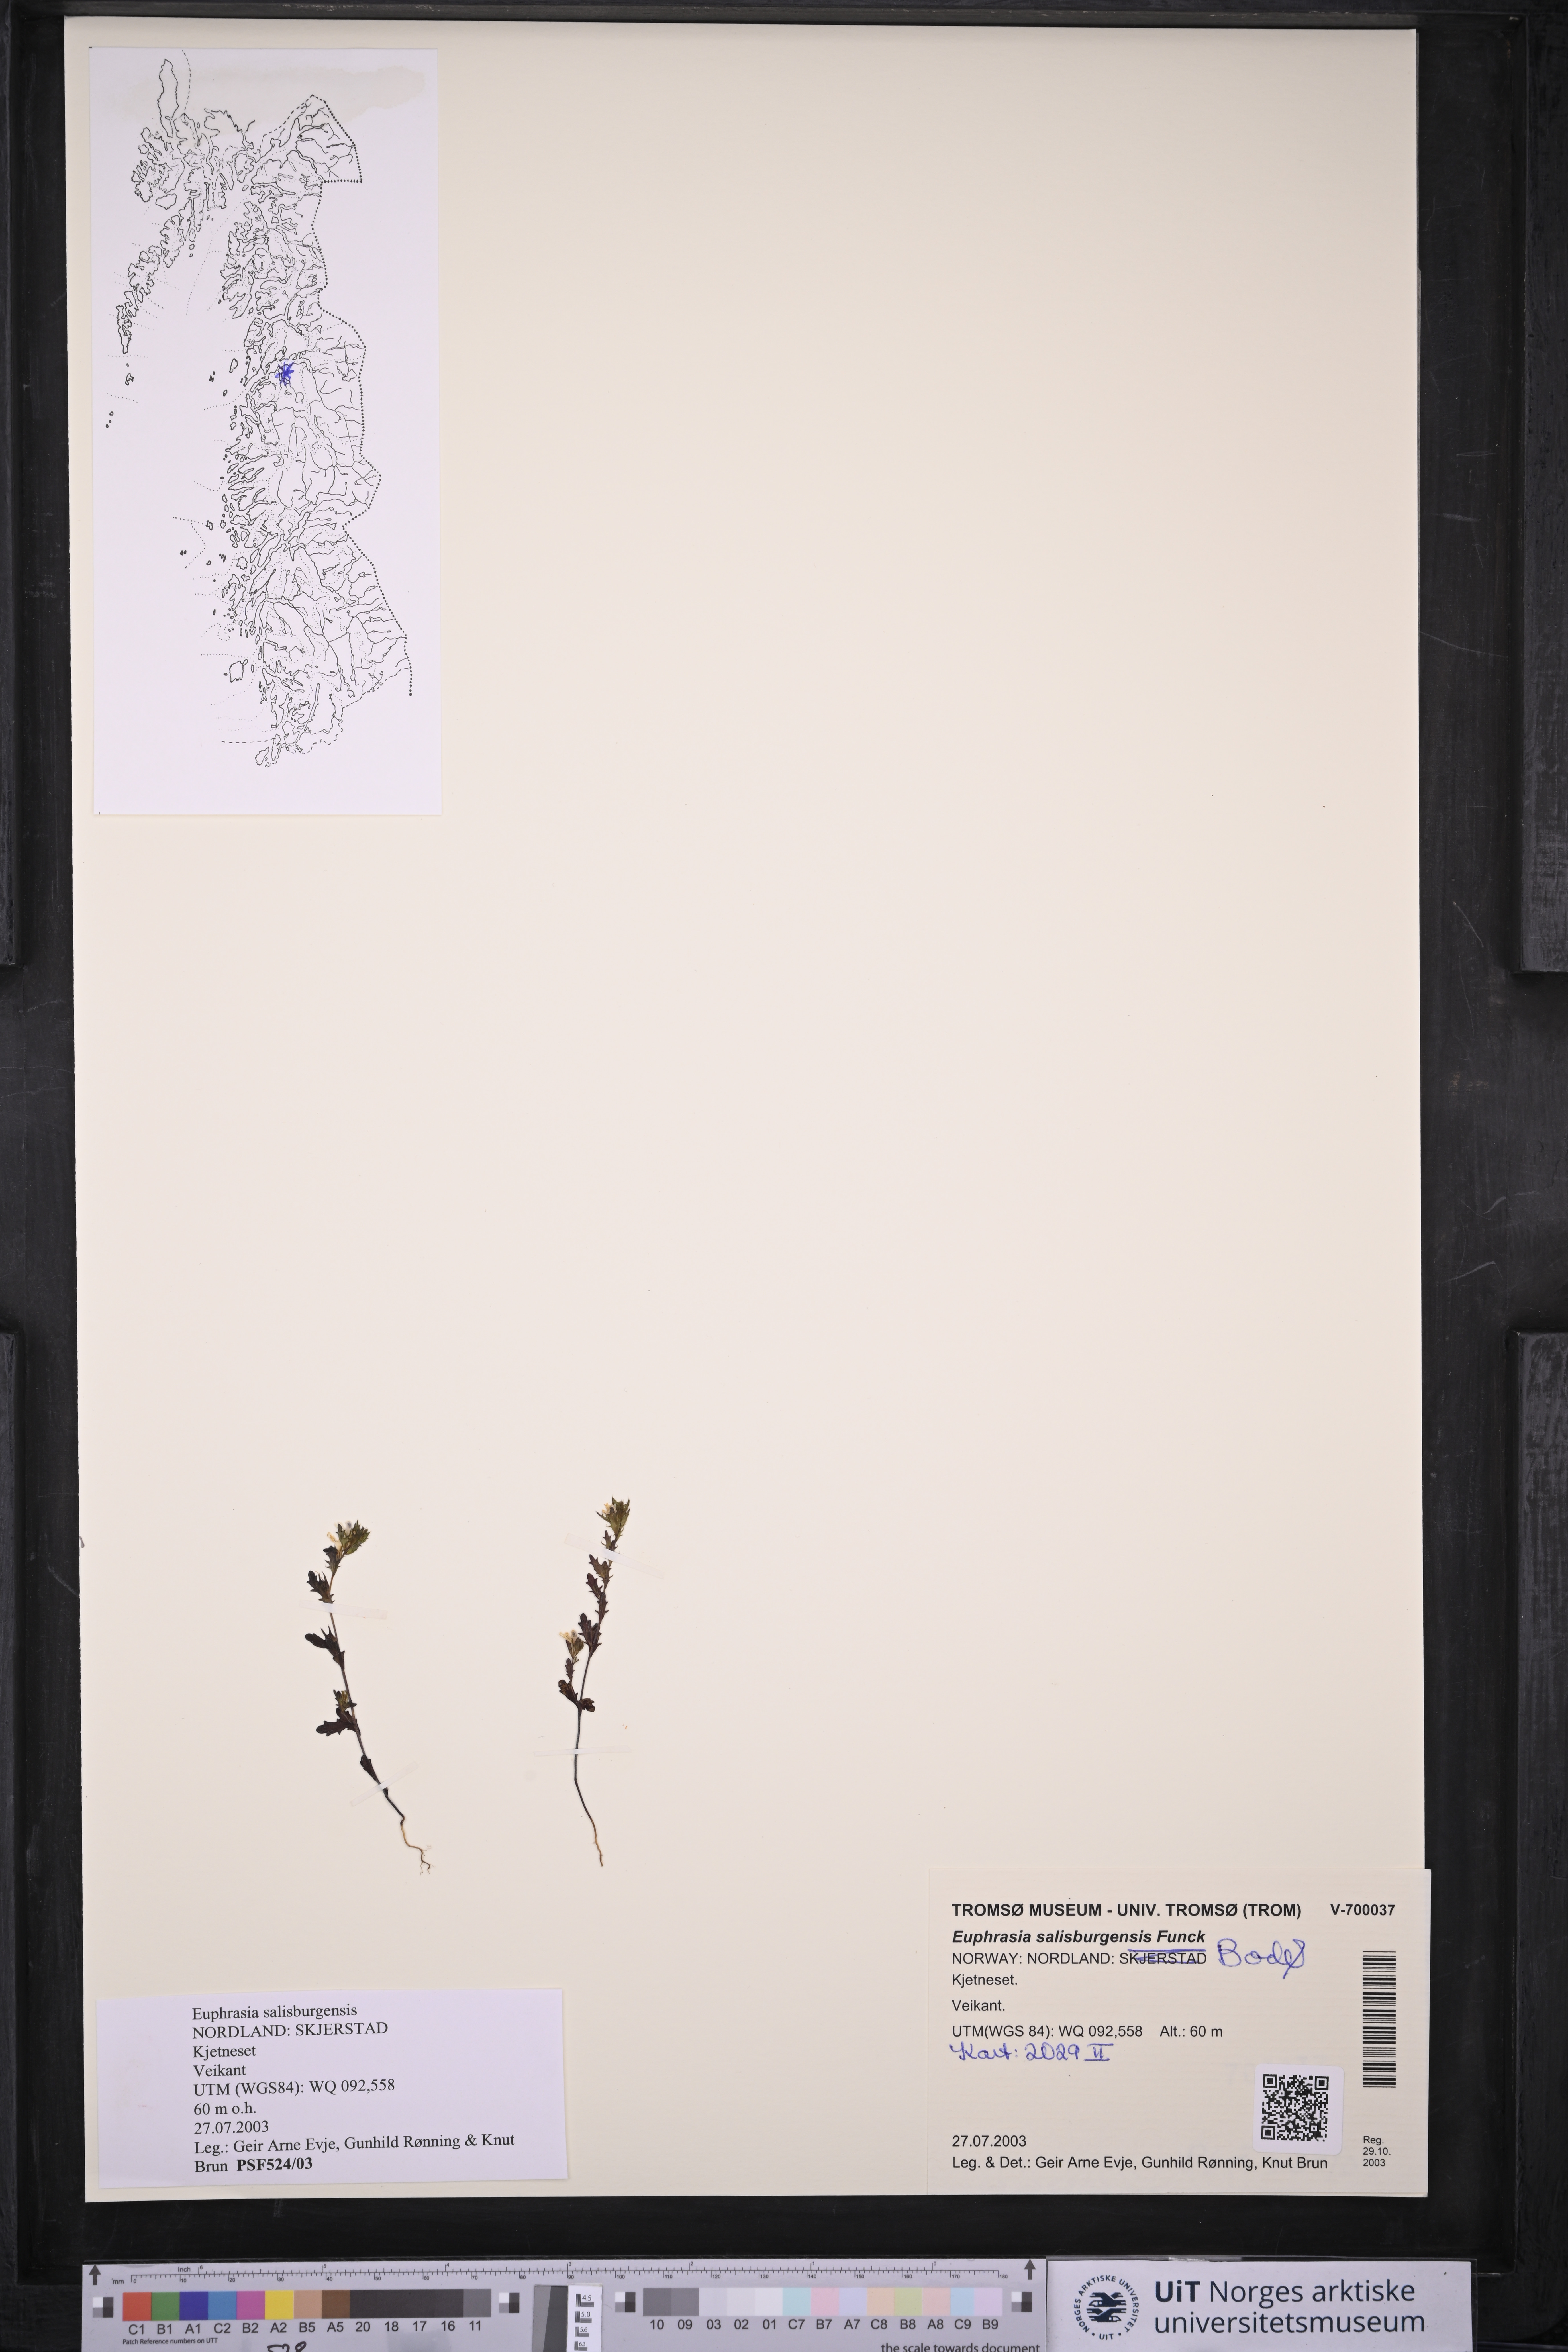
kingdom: Plantae
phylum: Tracheophyta
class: Magnoliopsida
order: Lamiales
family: Orobanchaceae
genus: Euphrasia
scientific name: Euphrasia salisburgensis
